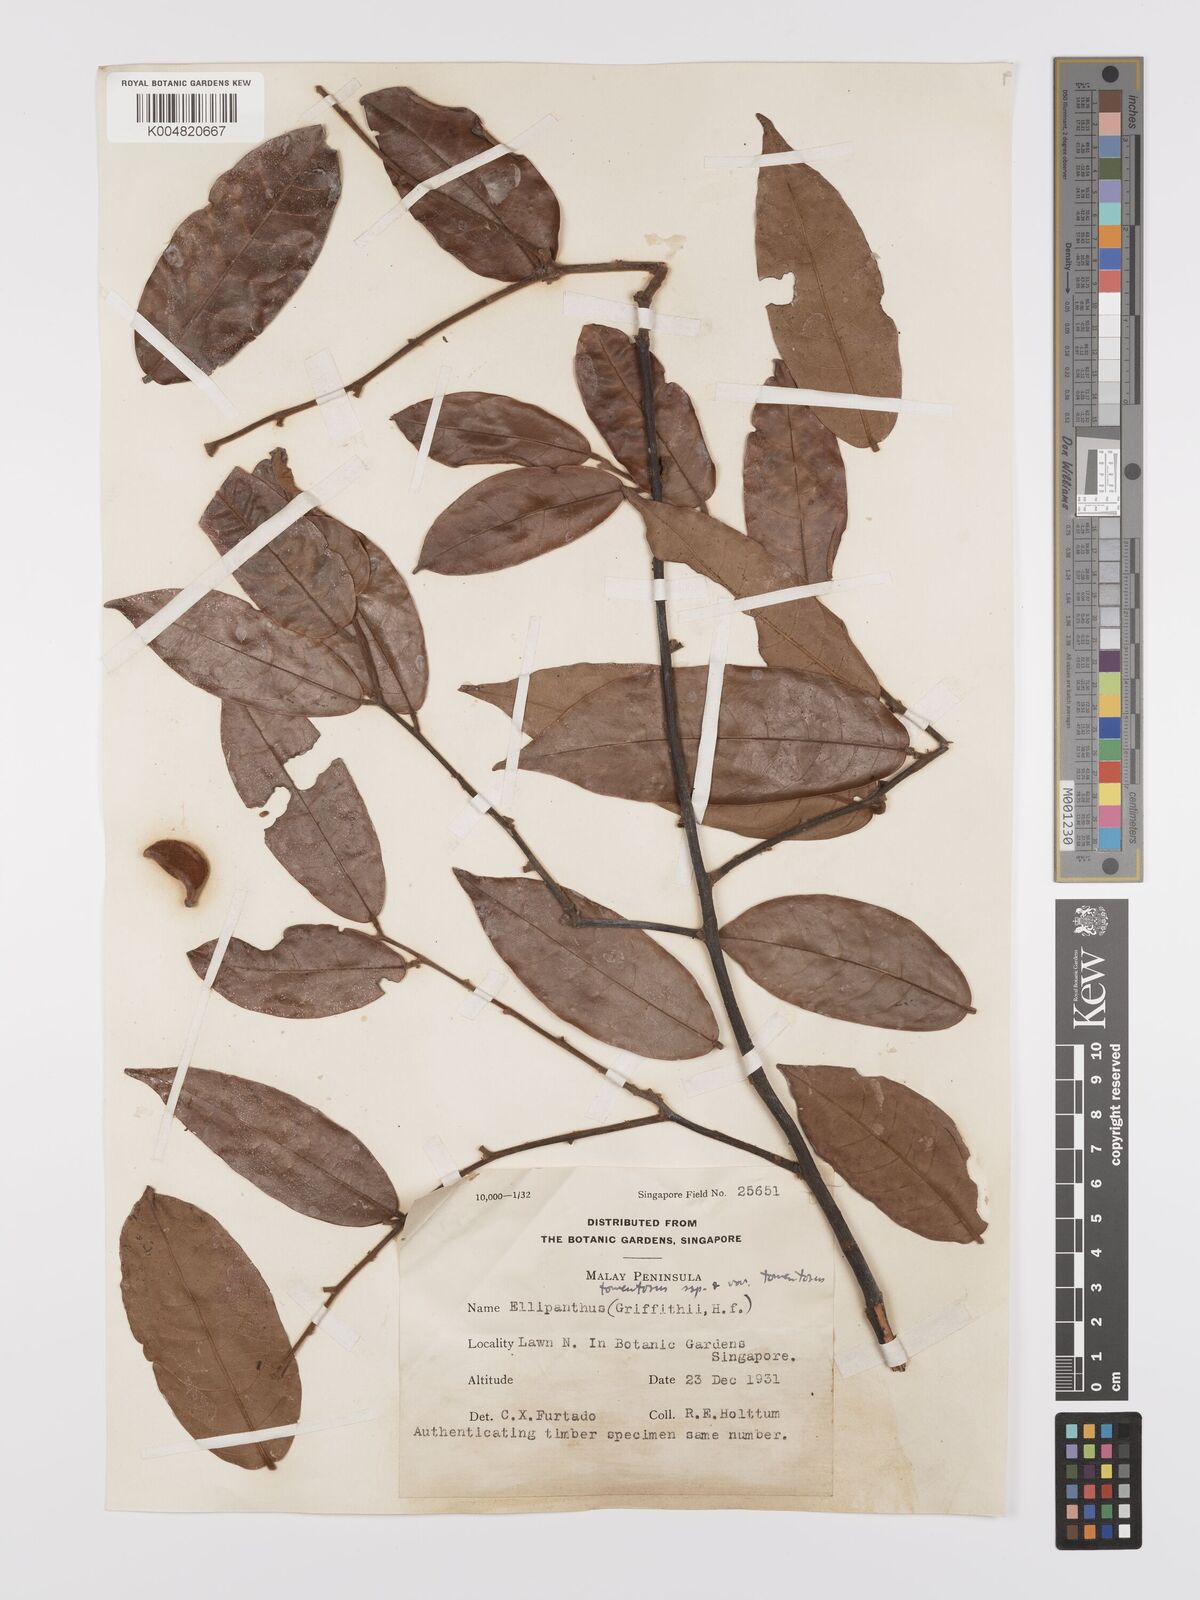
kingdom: Plantae
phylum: Tracheophyta
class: Magnoliopsida
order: Oxalidales
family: Connaraceae
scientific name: Connaraceae
